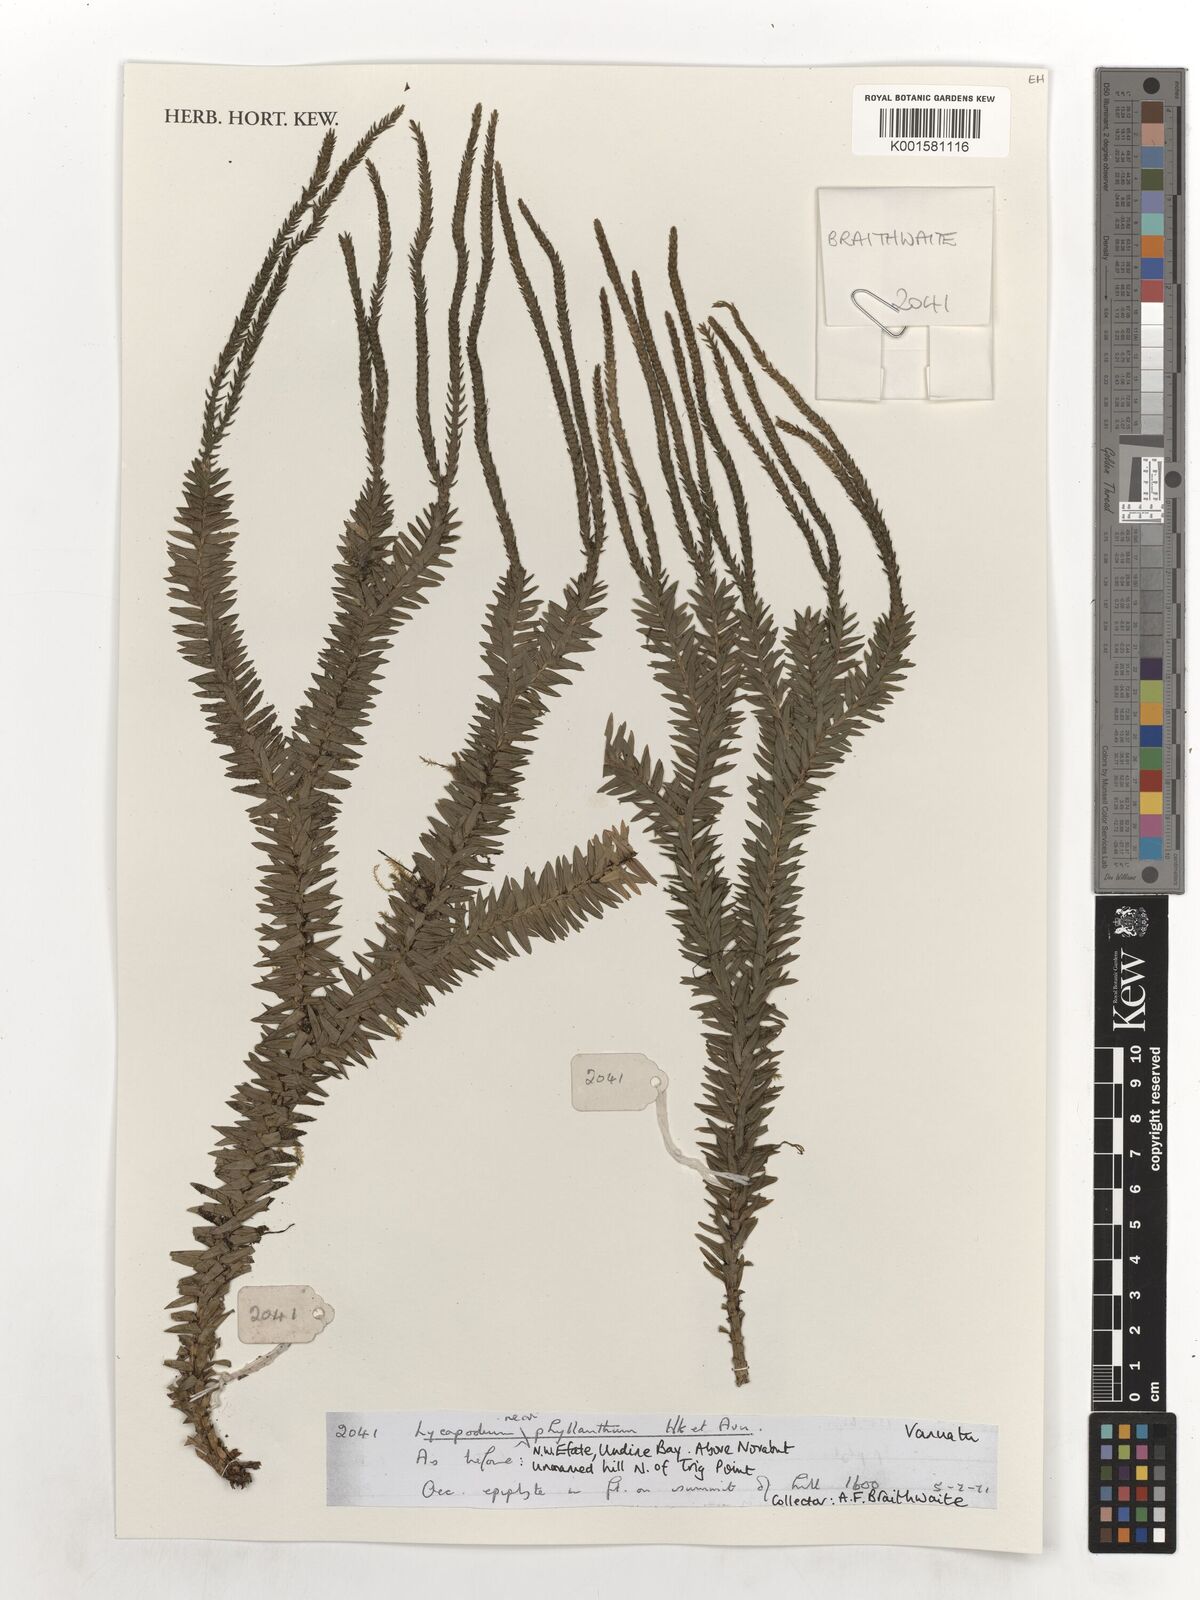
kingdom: Plantae
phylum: Tracheophyta
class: Lycopodiopsida
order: Lycopodiales
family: Lycopodiaceae
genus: Phlegmariurus
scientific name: Phlegmariurus phyllanthus
